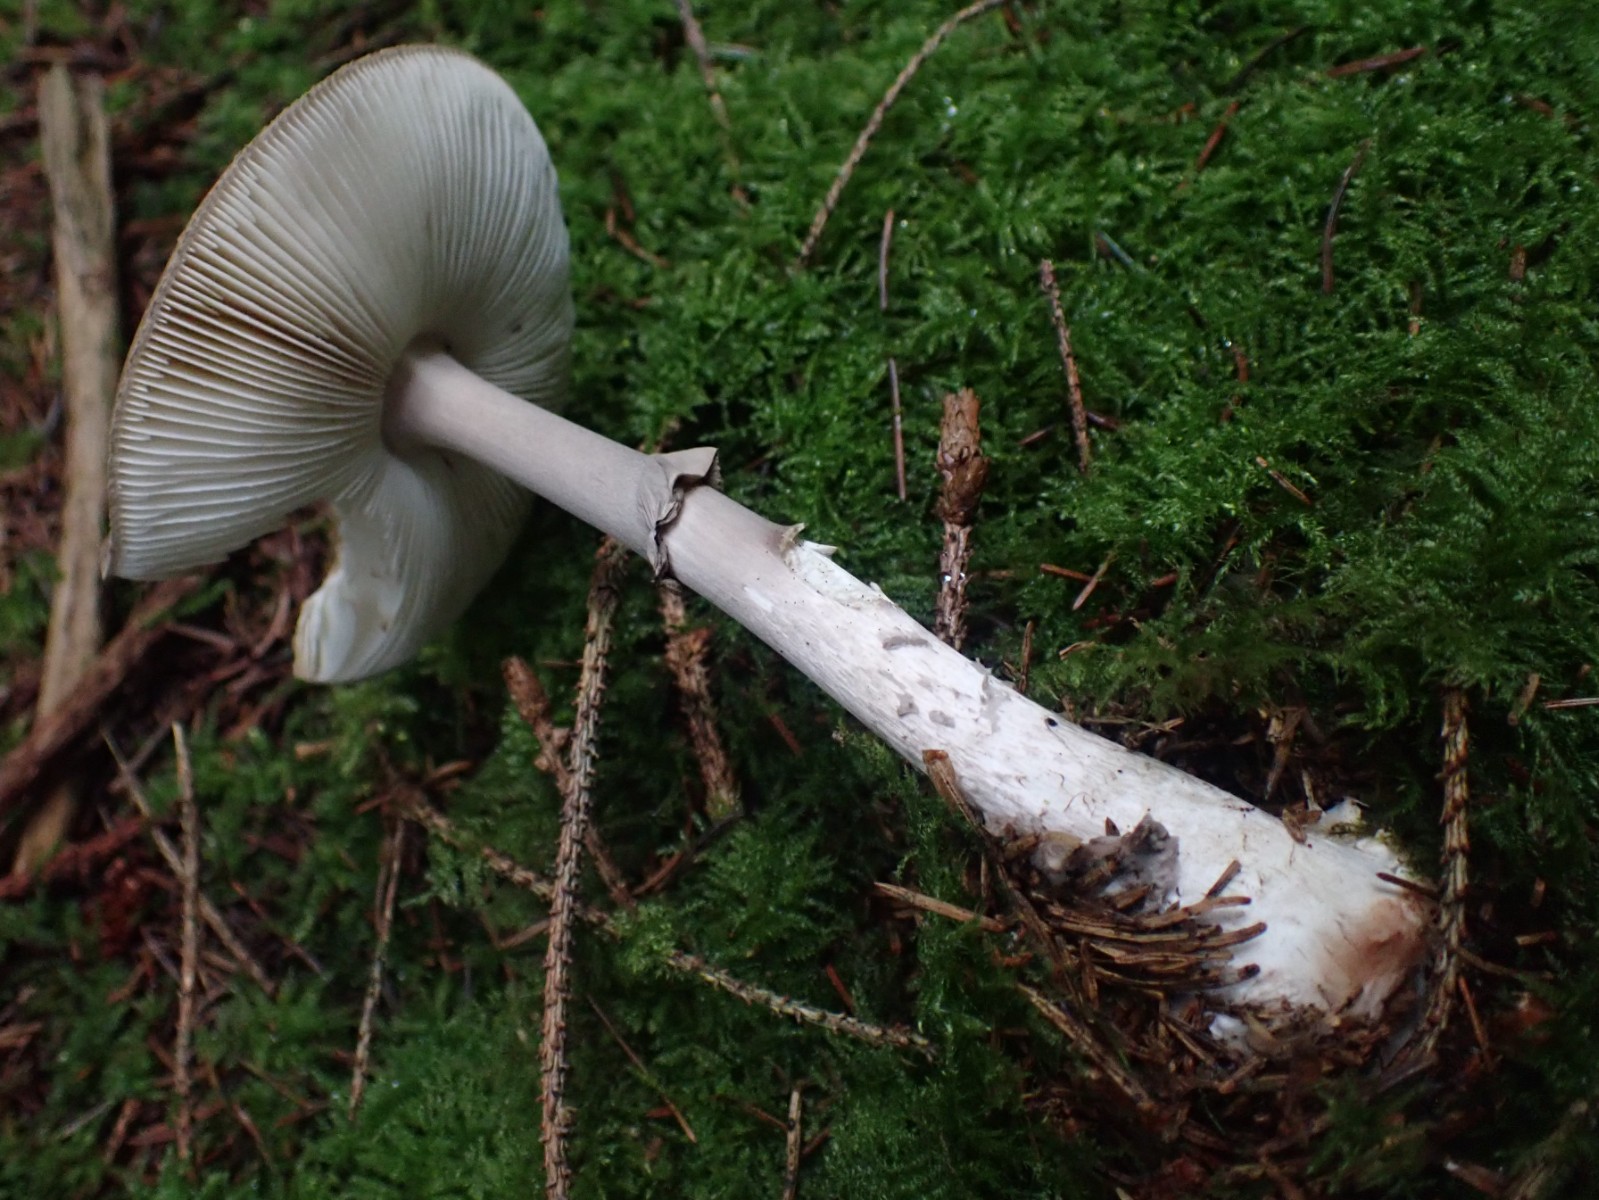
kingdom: Fungi
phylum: Basidiomycota
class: Agaricomycetes
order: Agaricales
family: Amanitaceae
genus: Amanita
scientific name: Amanita porphyria
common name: porfyr-fluesvamp
